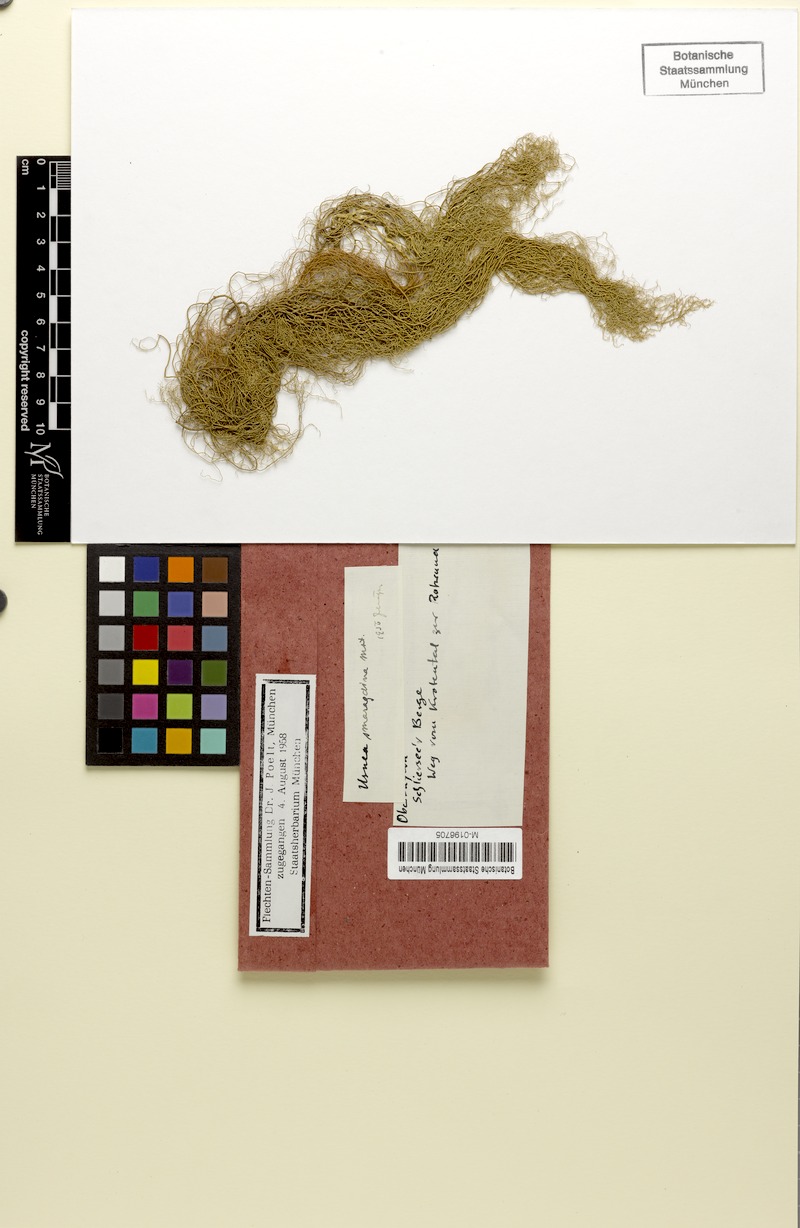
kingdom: Fungi
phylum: Ascomycota
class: Lecanoromycetes
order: Lecanorales
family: Parmeliaceae
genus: Usnea
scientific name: Usnea intermedia
